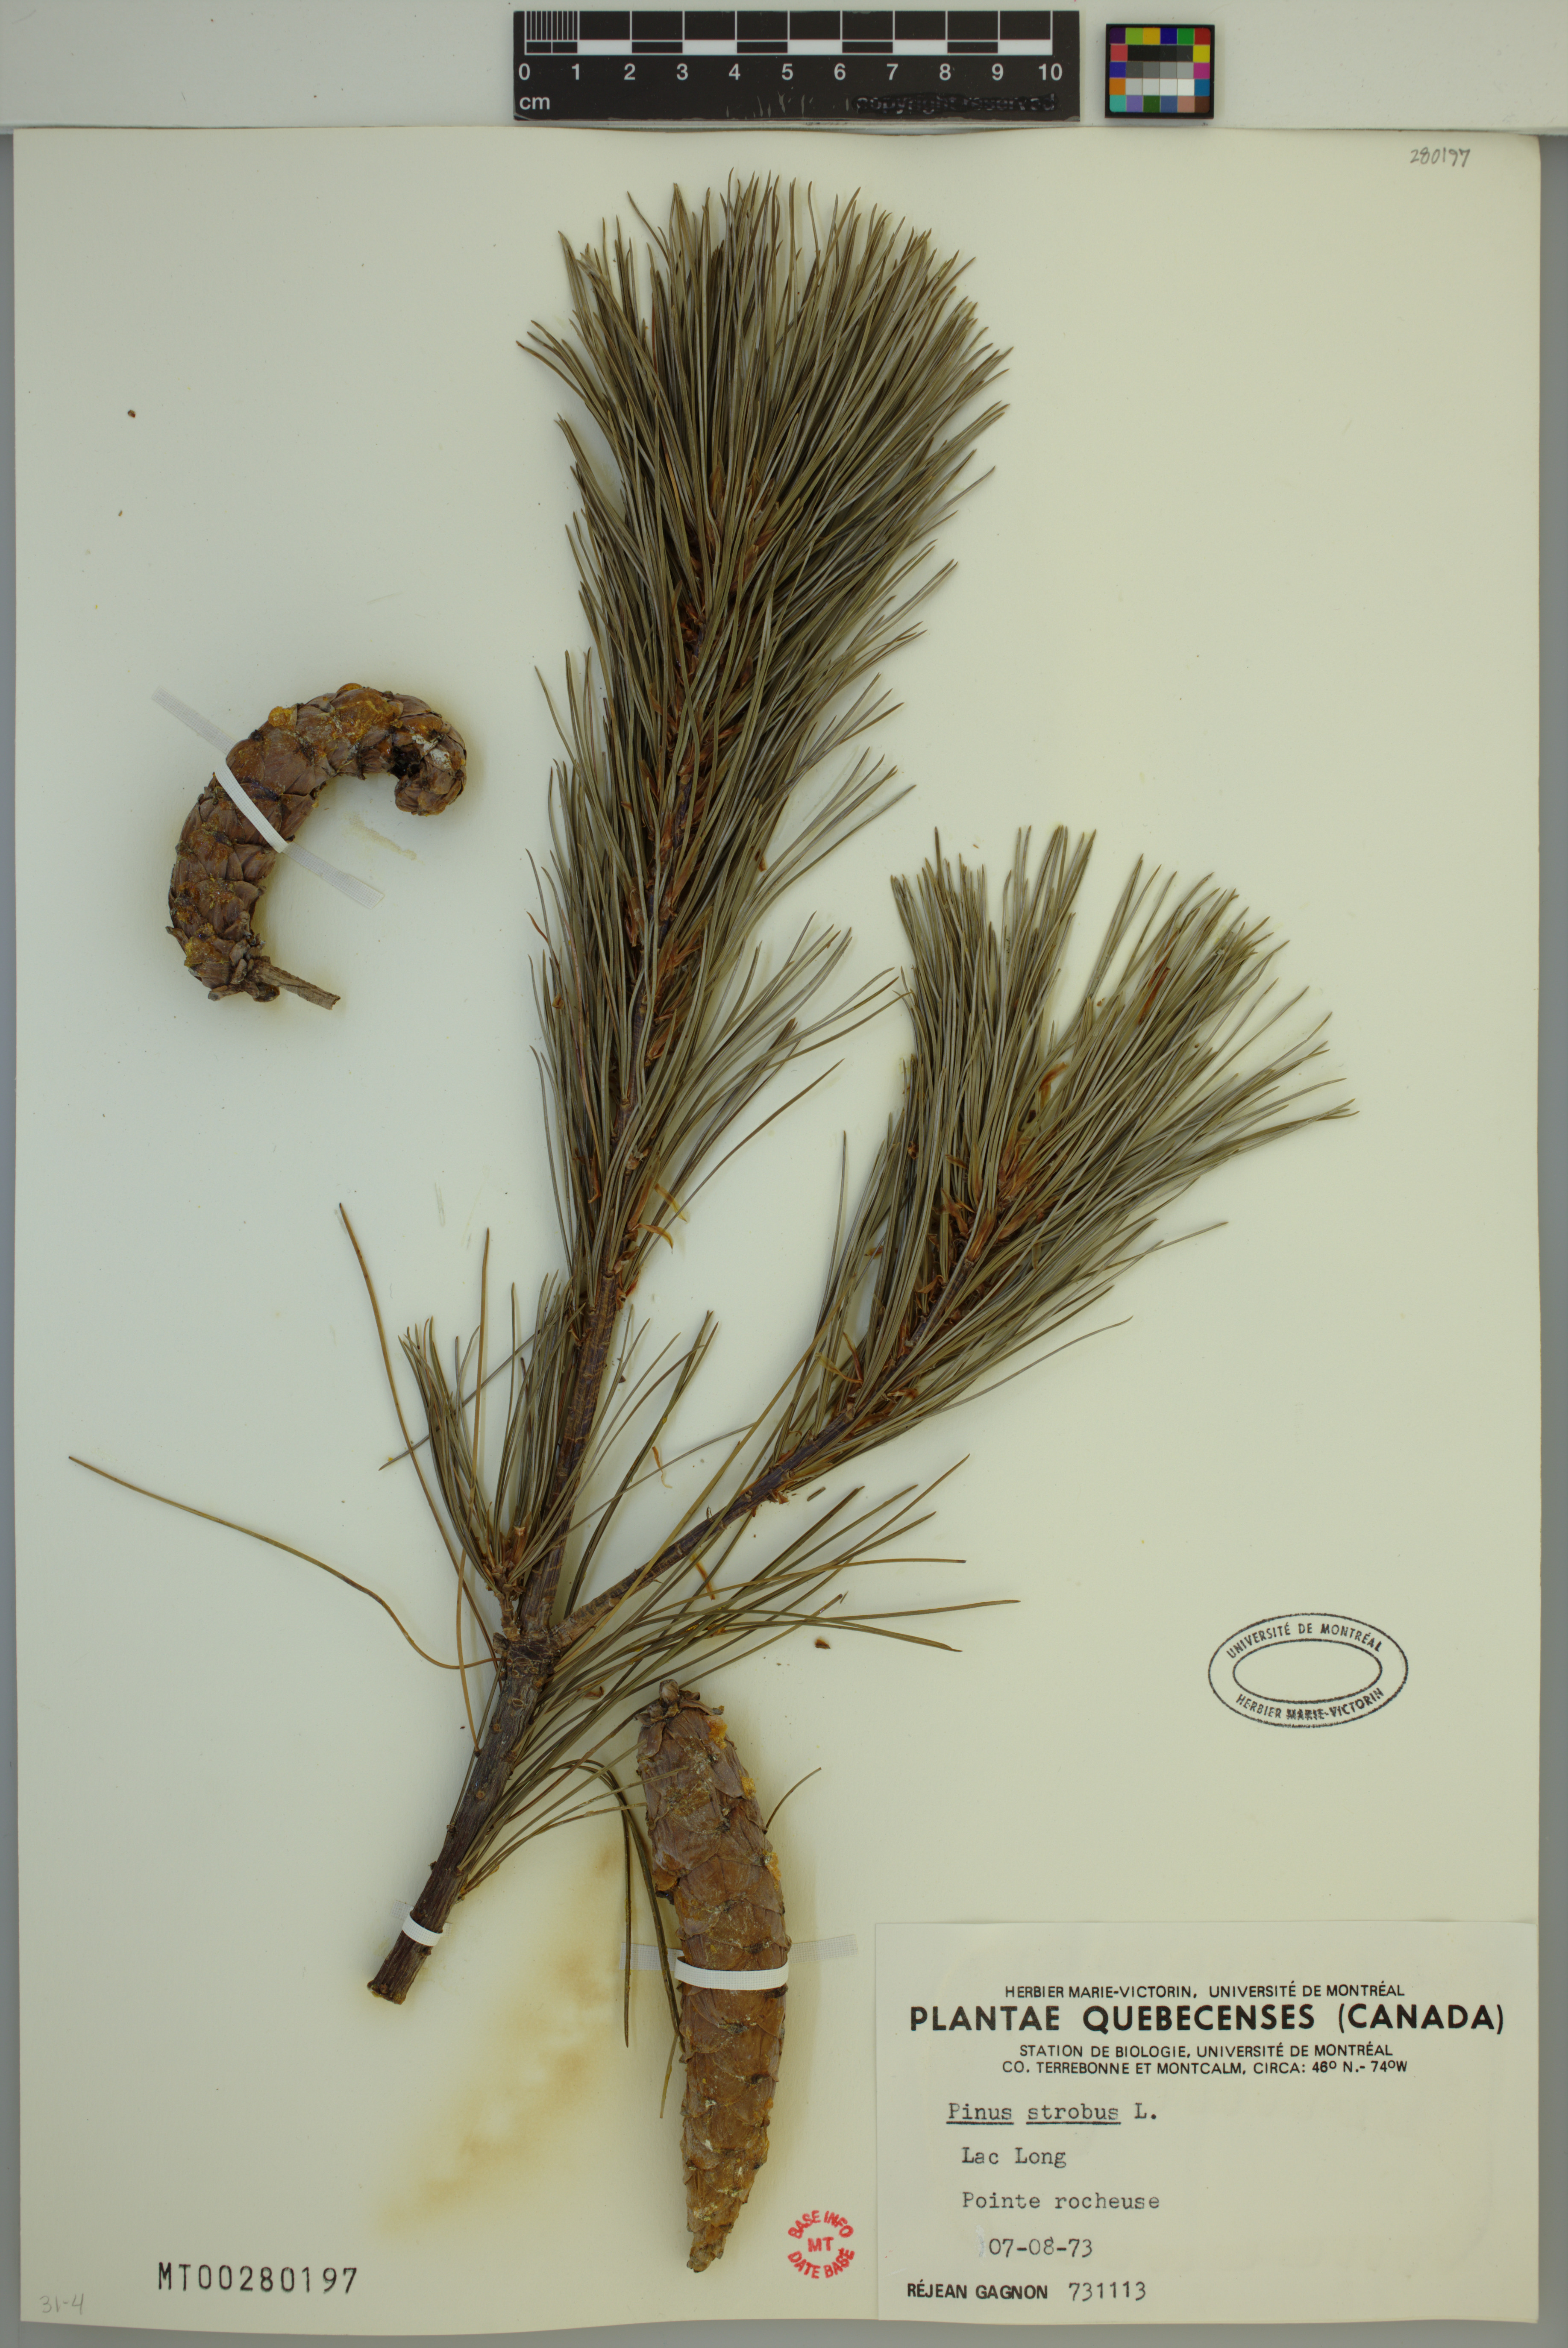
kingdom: Plantae
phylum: Tracheophyta
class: Pinopsida
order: Pinales
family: Pinaceae
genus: Pinus
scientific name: Pinus strobus
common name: Weymouth pine
